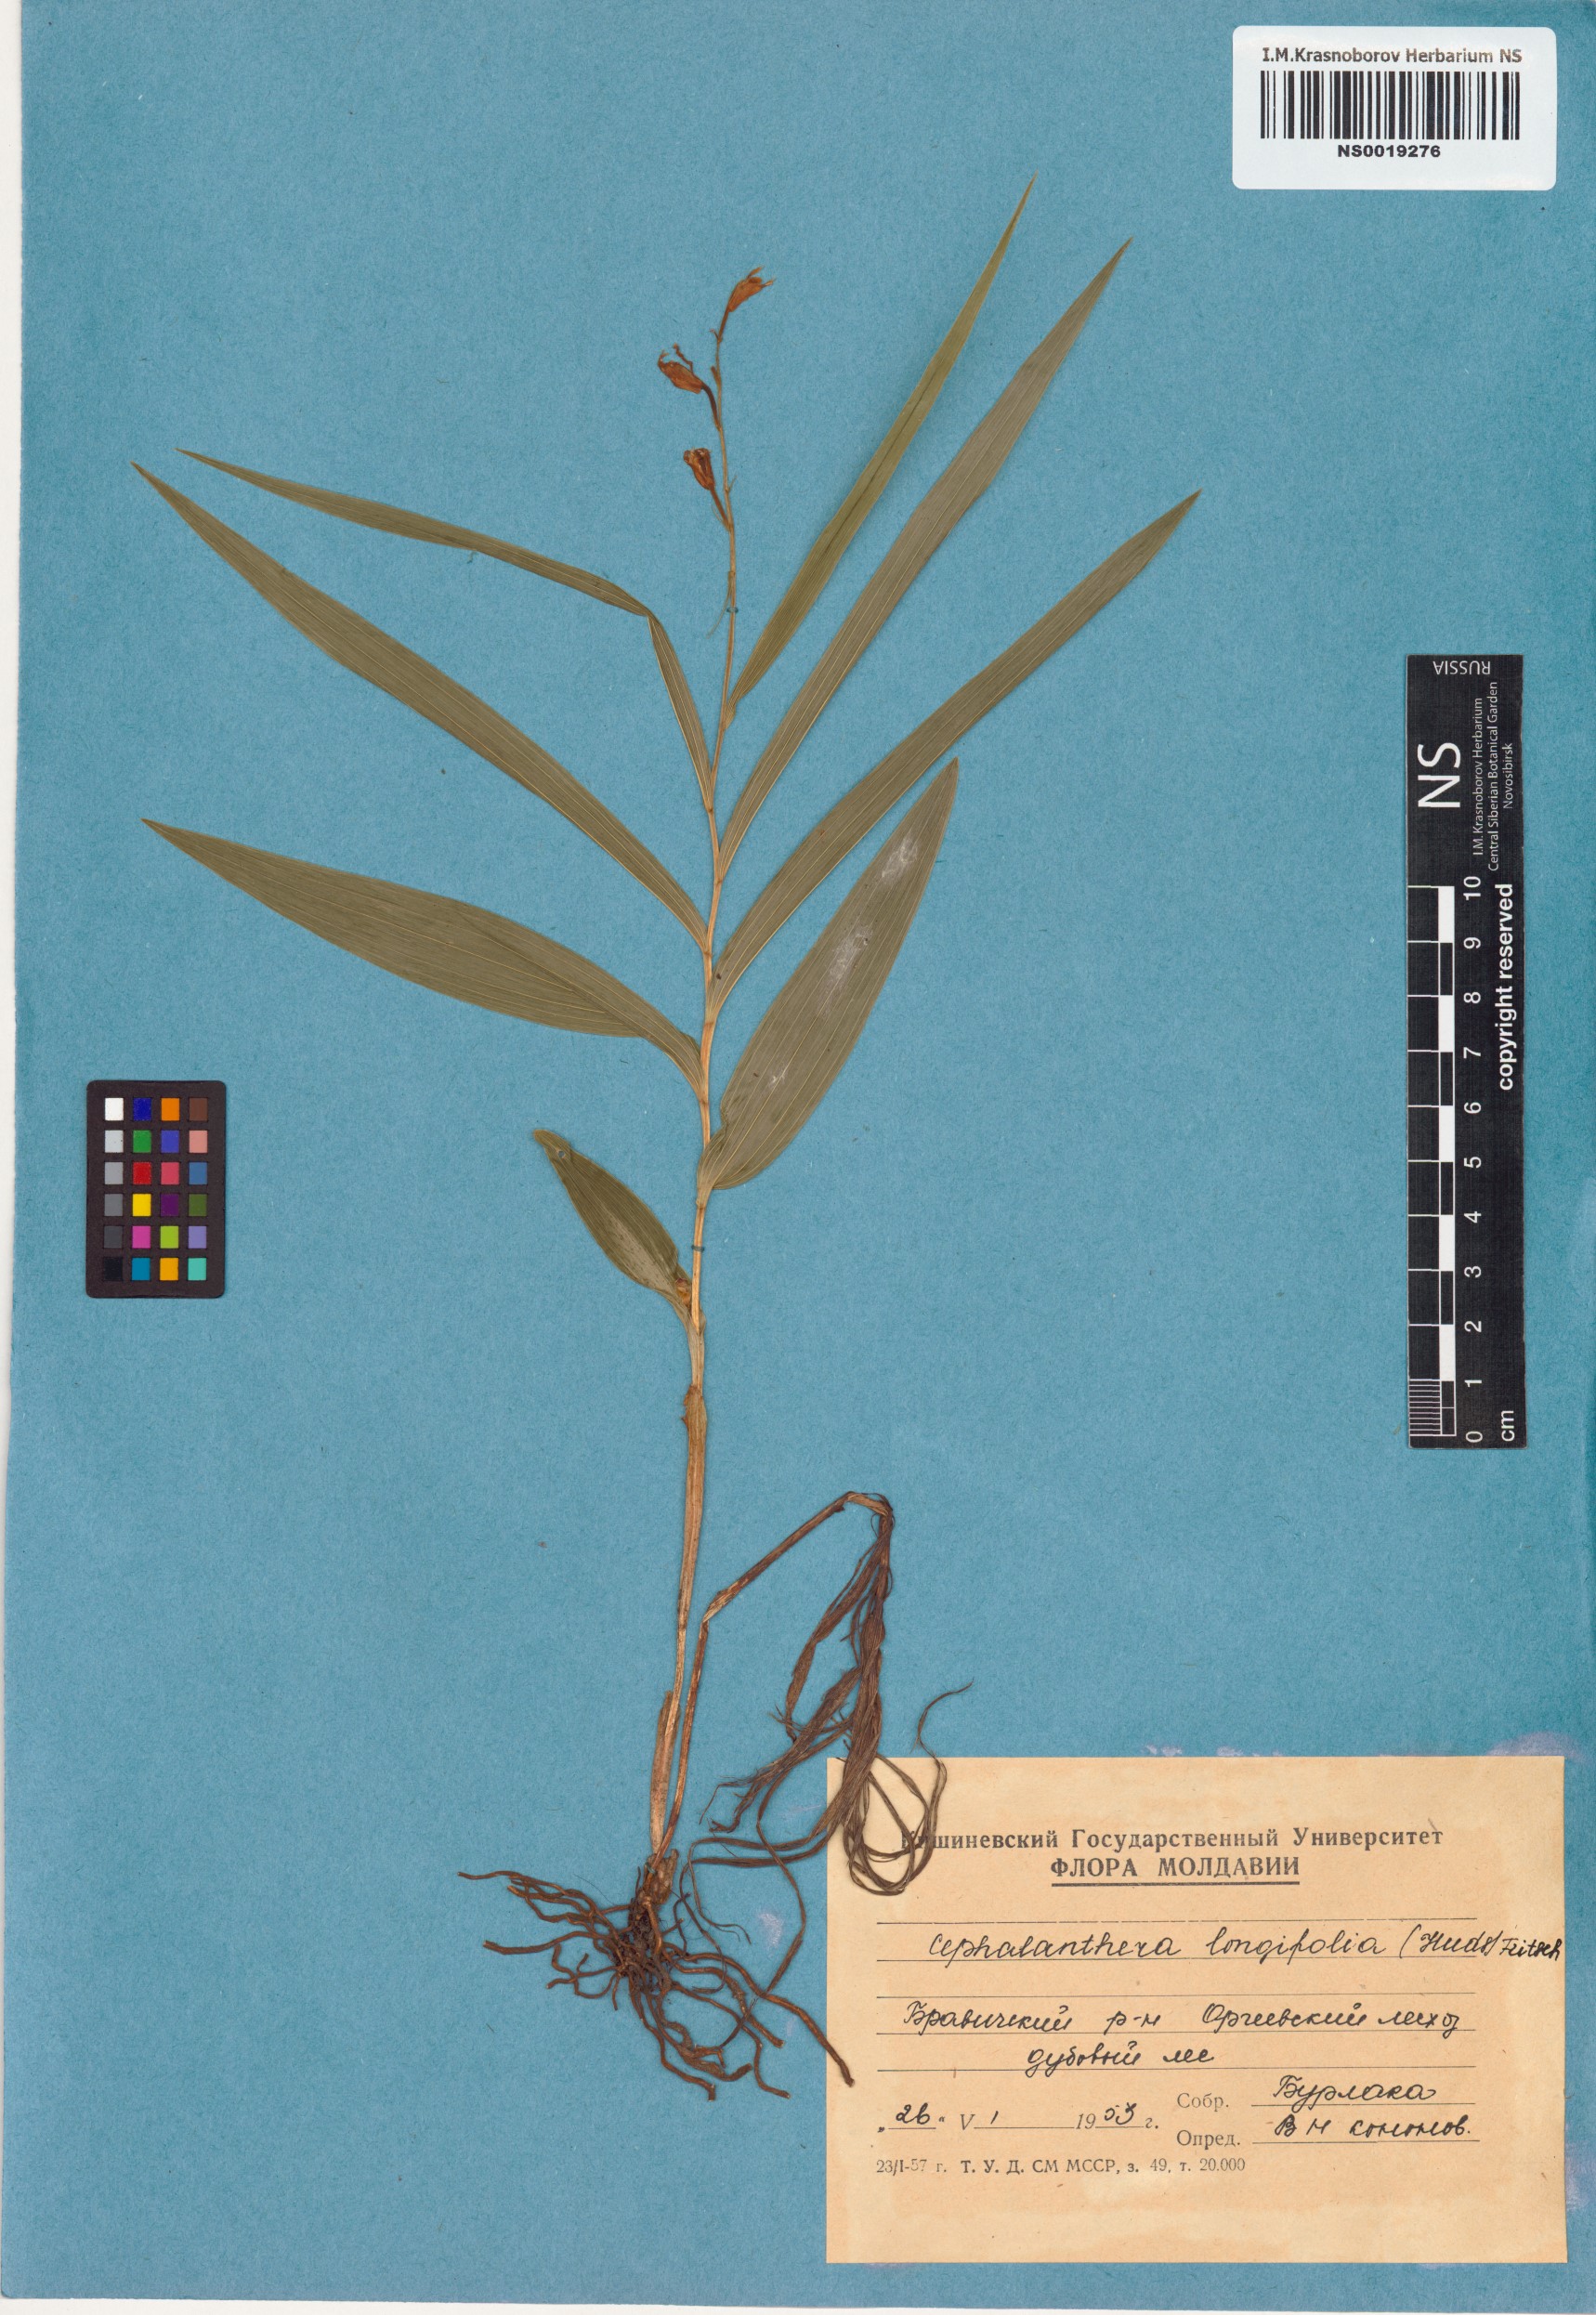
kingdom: Plantae
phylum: Tracheophyta
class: Liliopsida
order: Asparagales
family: Orchidaceae
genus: Cephalanthera
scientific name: Cephalanthera longifolia
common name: Narrow-leaved helleborine
